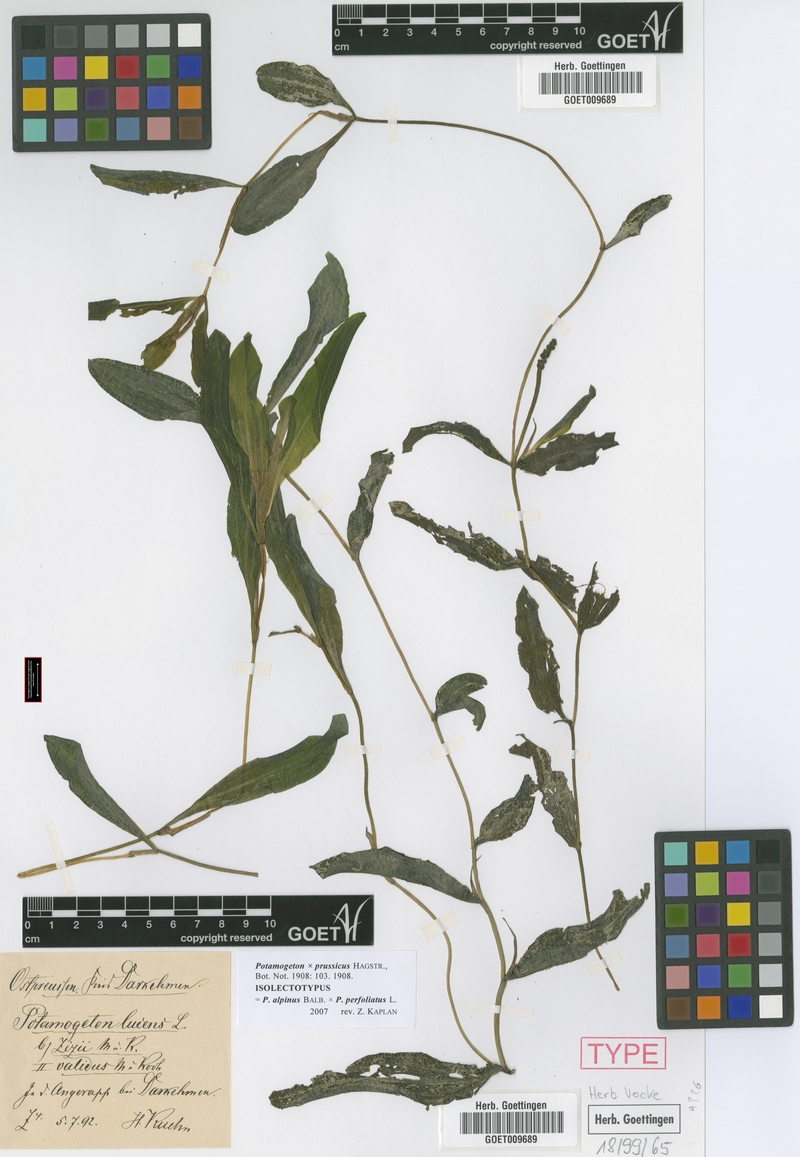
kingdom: Plantae
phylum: Tracheophyta
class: Liliopsida
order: Alismatales
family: Potamogetonaceae
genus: Potamogeton
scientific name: Potamogeton prussicus
